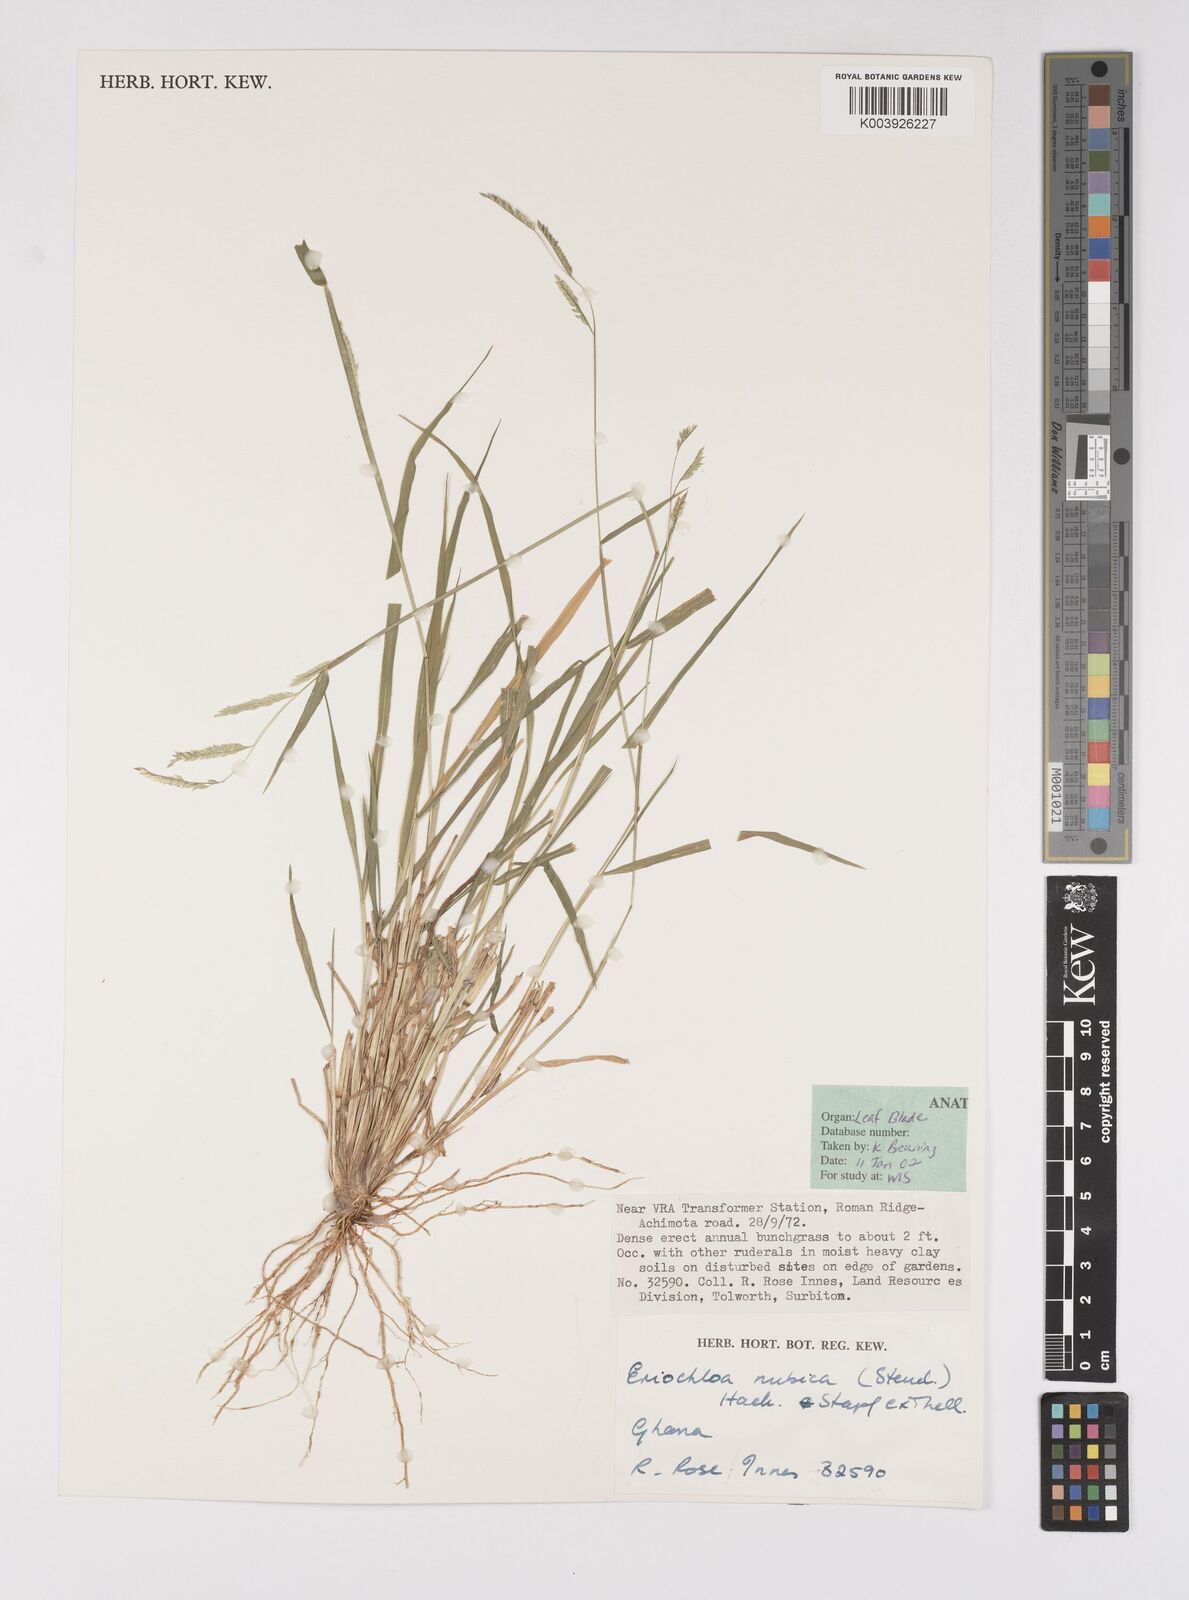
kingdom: Plantae
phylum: Tracheophyta
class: Liliopsida
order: Poales
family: Poaceae
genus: Eriochloa
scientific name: Eriochloa barbatus
